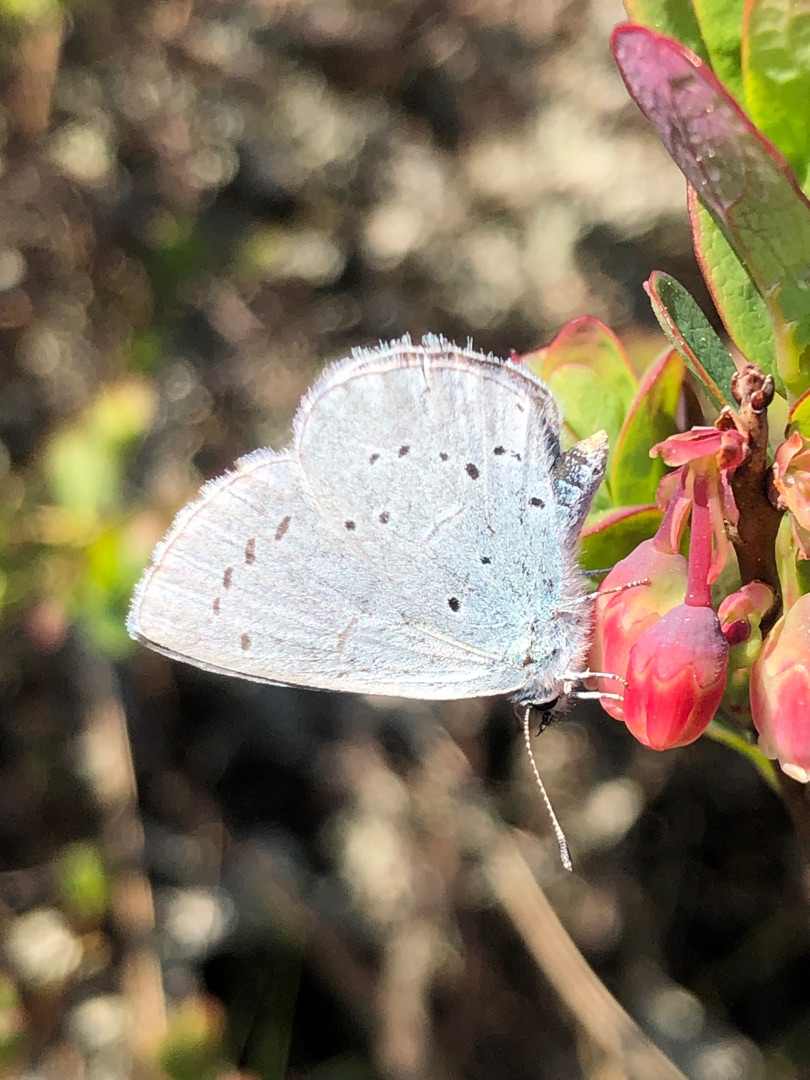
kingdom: Animalia
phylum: Arthropoda
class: Insecta
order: Lepidoptera
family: Lycaenidae
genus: Celastrina
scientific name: Celastrina argiolus
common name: Skovblåfugl
